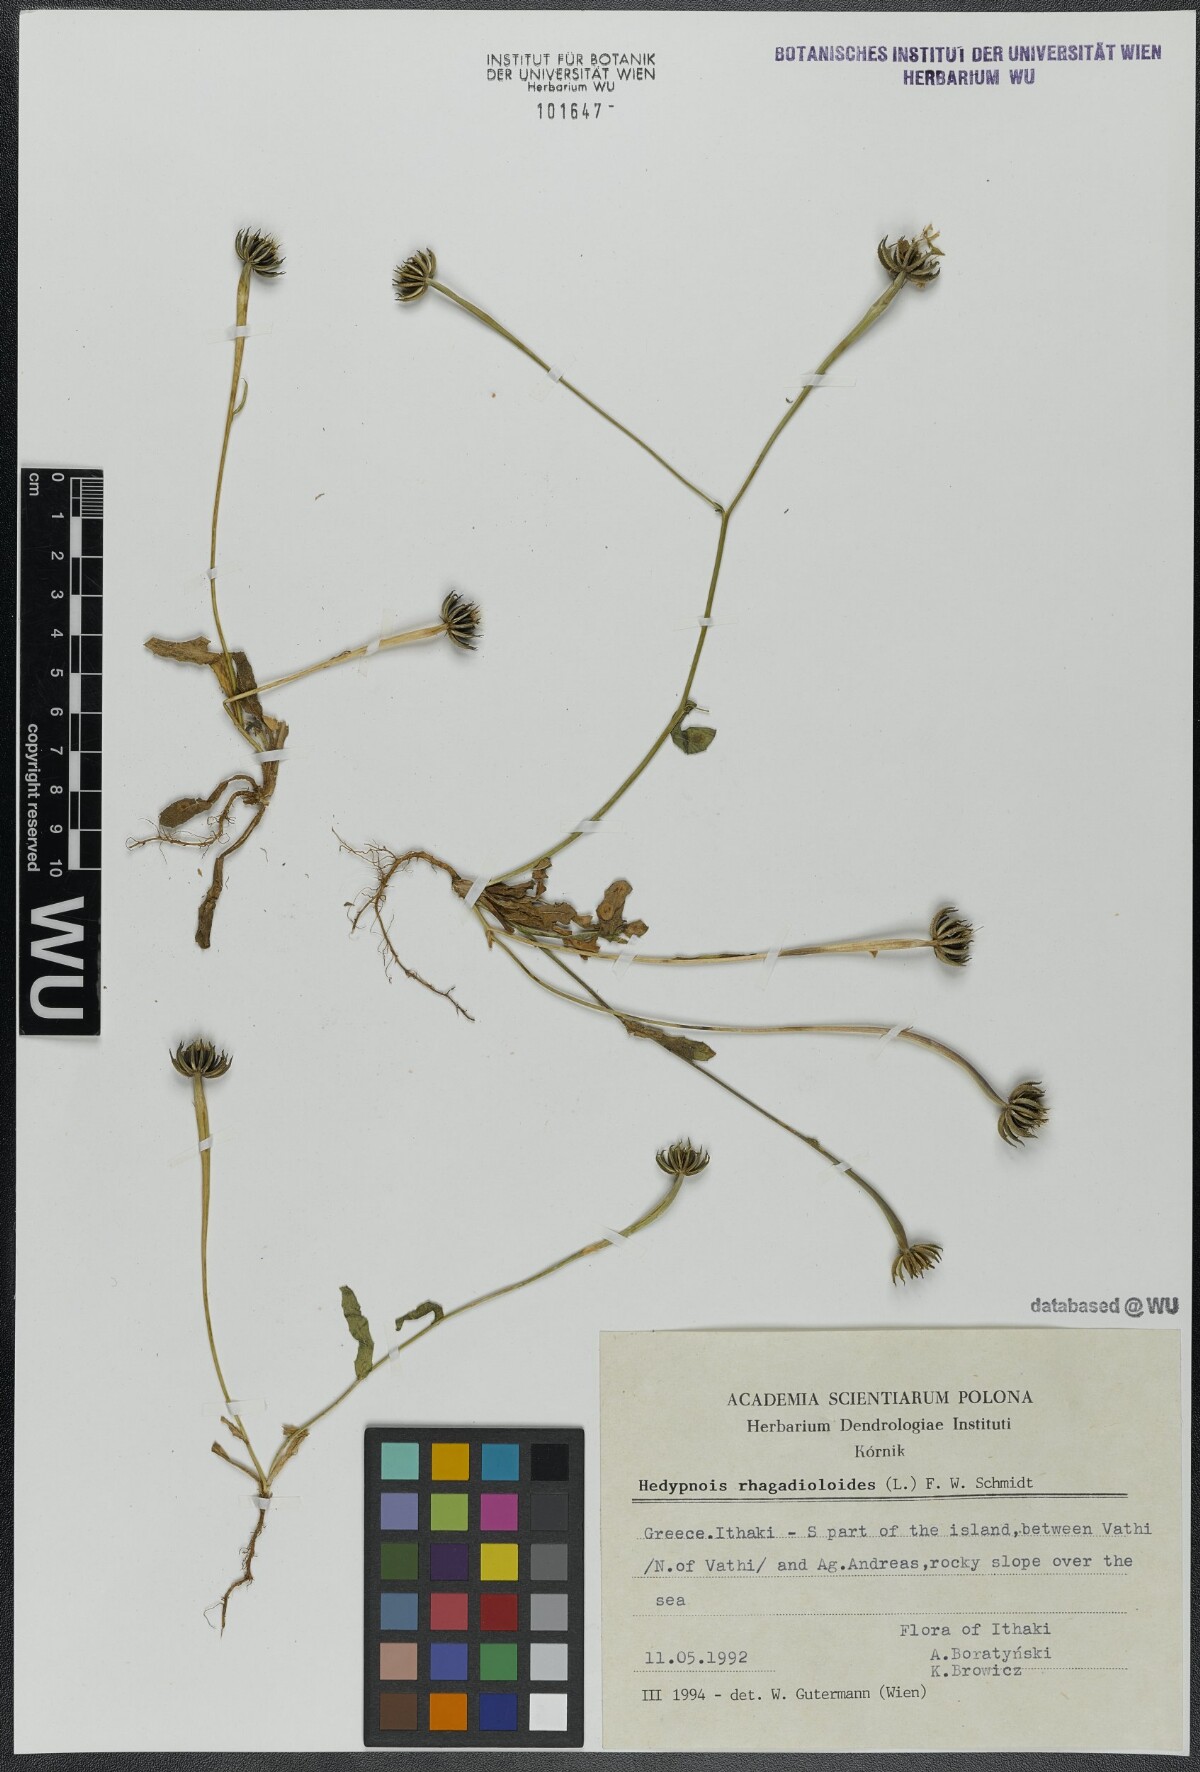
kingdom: Plantae
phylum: Tracheophyta
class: Magnoliopsida
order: Asterales
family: Asteraceae
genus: Hedypnois
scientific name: Hedypnois rhagadioloides
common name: Cretan weed
